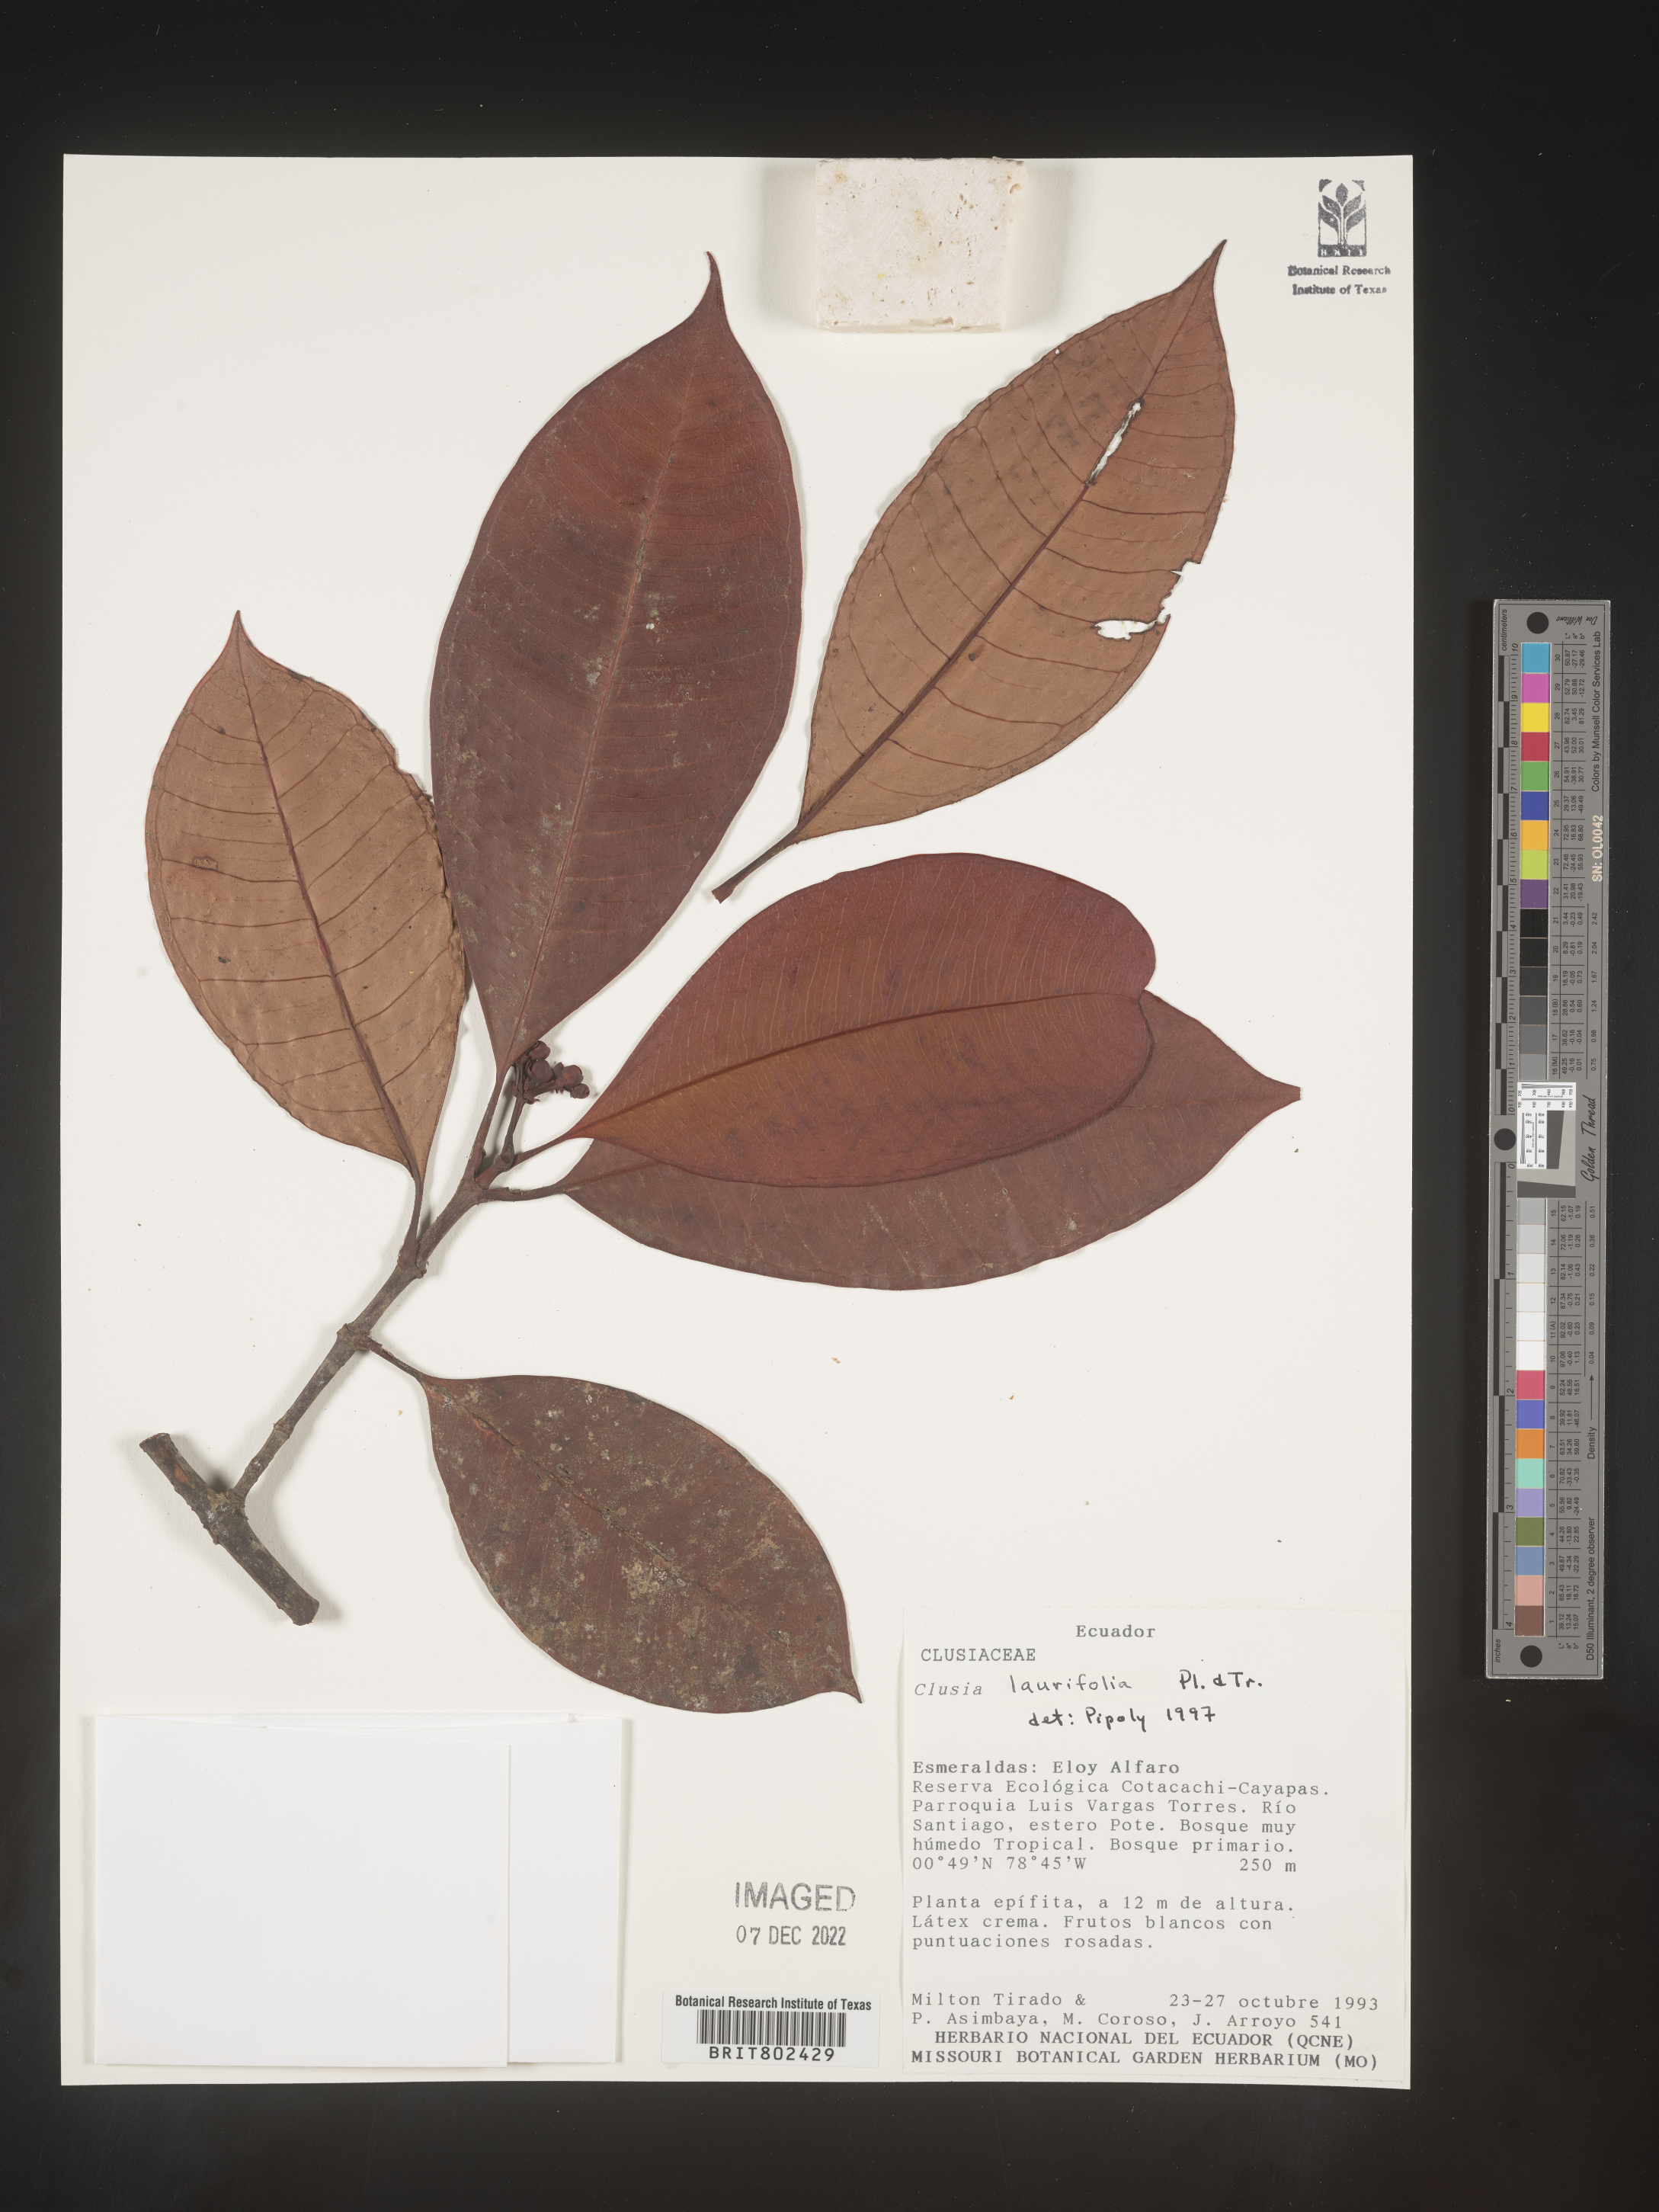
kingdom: Plantae
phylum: Tracheophyta
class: Magnoliopsida
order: Malpighiales
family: Clusiaceae
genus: Clusia
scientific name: Clusia laurifolia
